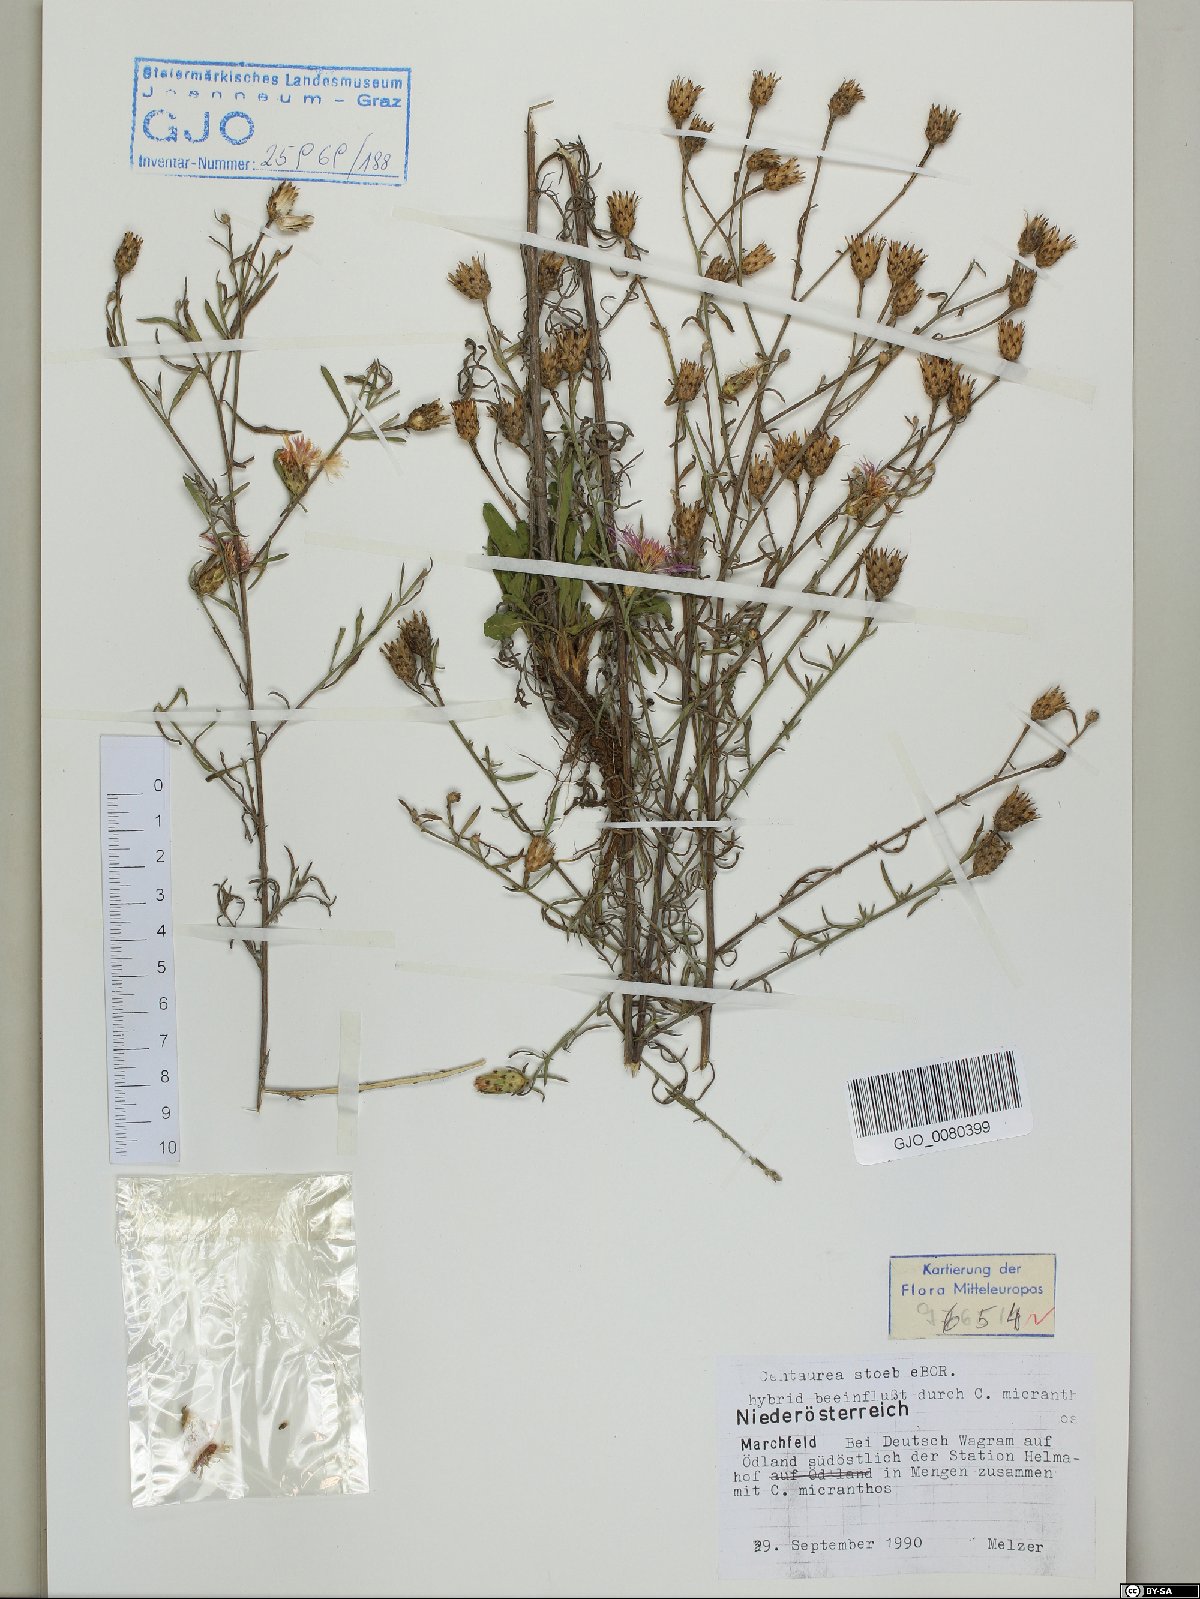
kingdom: Plantae
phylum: Tracheophyta
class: Magnoliopsida
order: Asterales
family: Asteraceae
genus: Centaurea
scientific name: Centaurea stoebe
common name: Spotted knapweed
